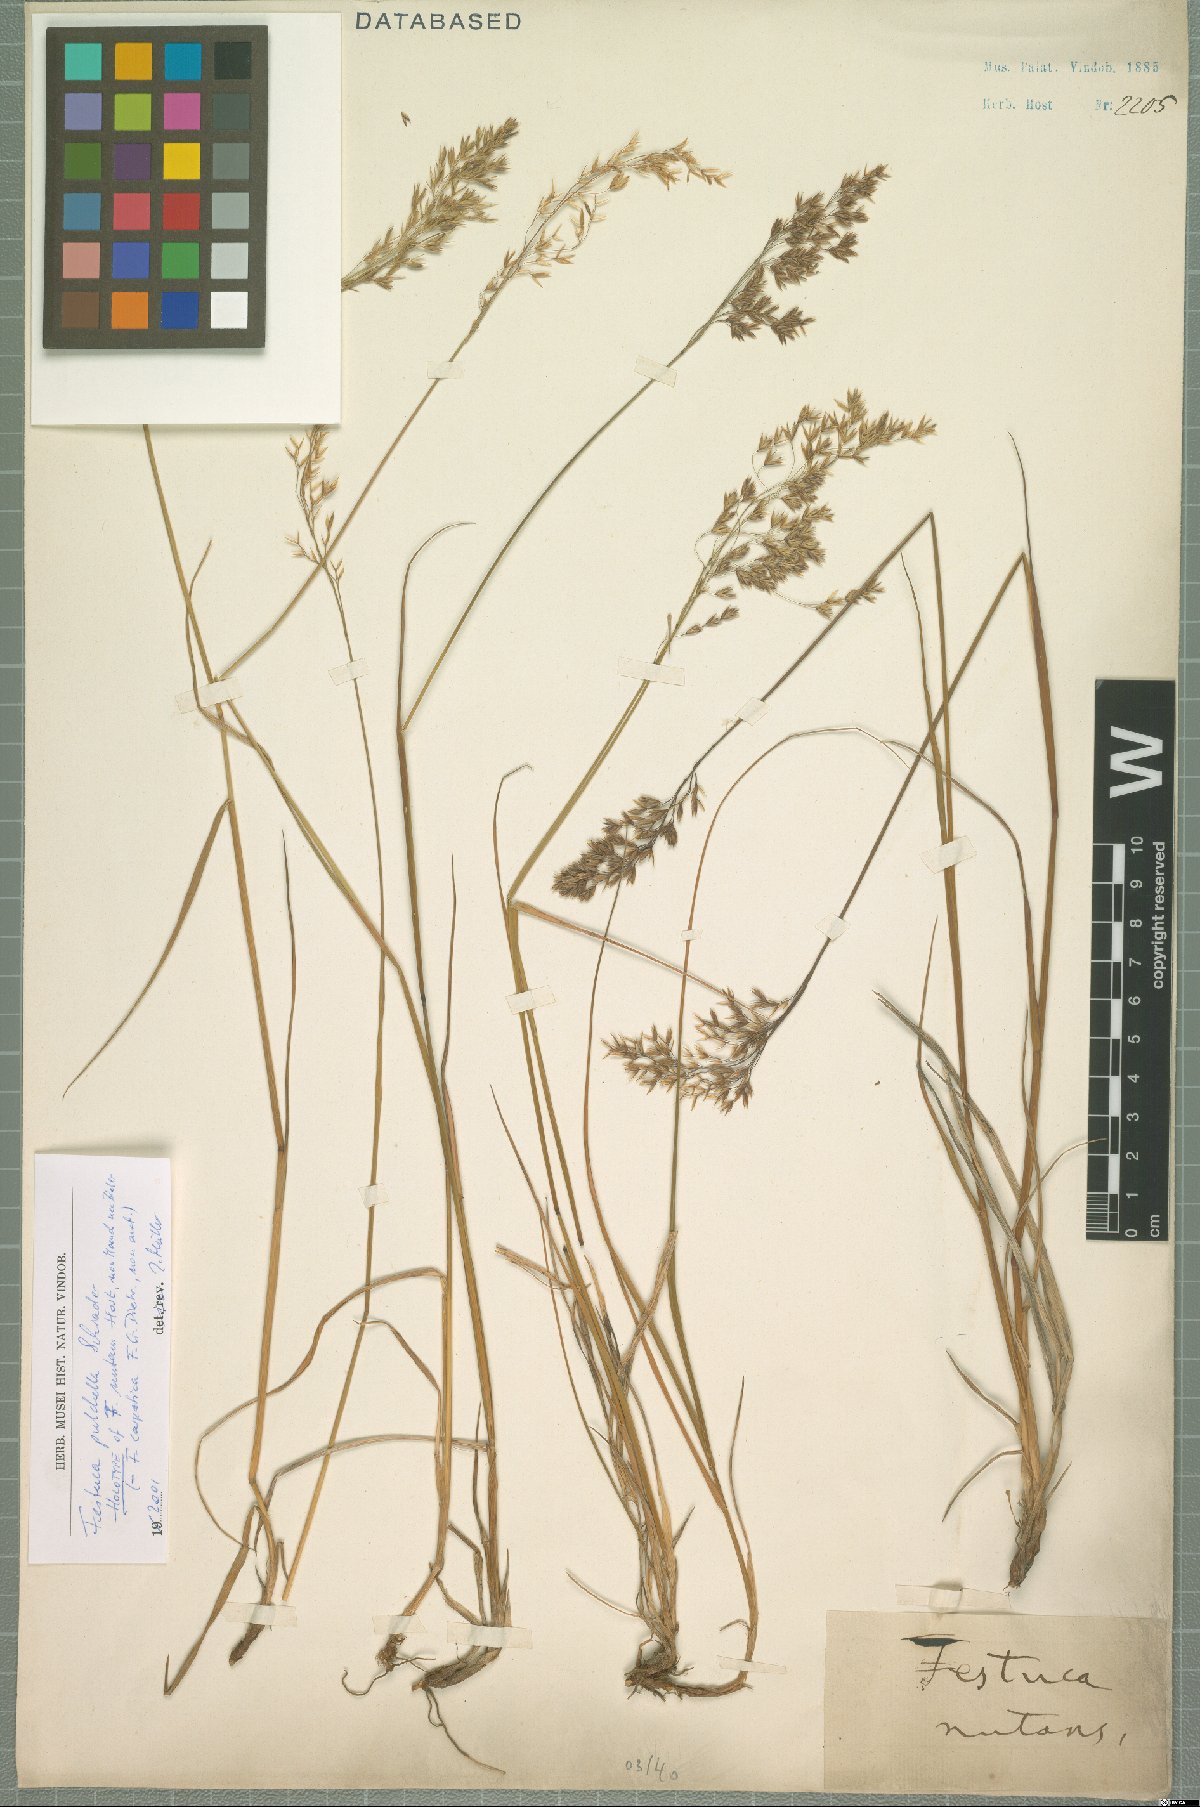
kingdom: Plantae
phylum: Tracheophyta
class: Liliopsida
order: Poales
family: Poaceae
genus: Festuca
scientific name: Festuca pulchella
